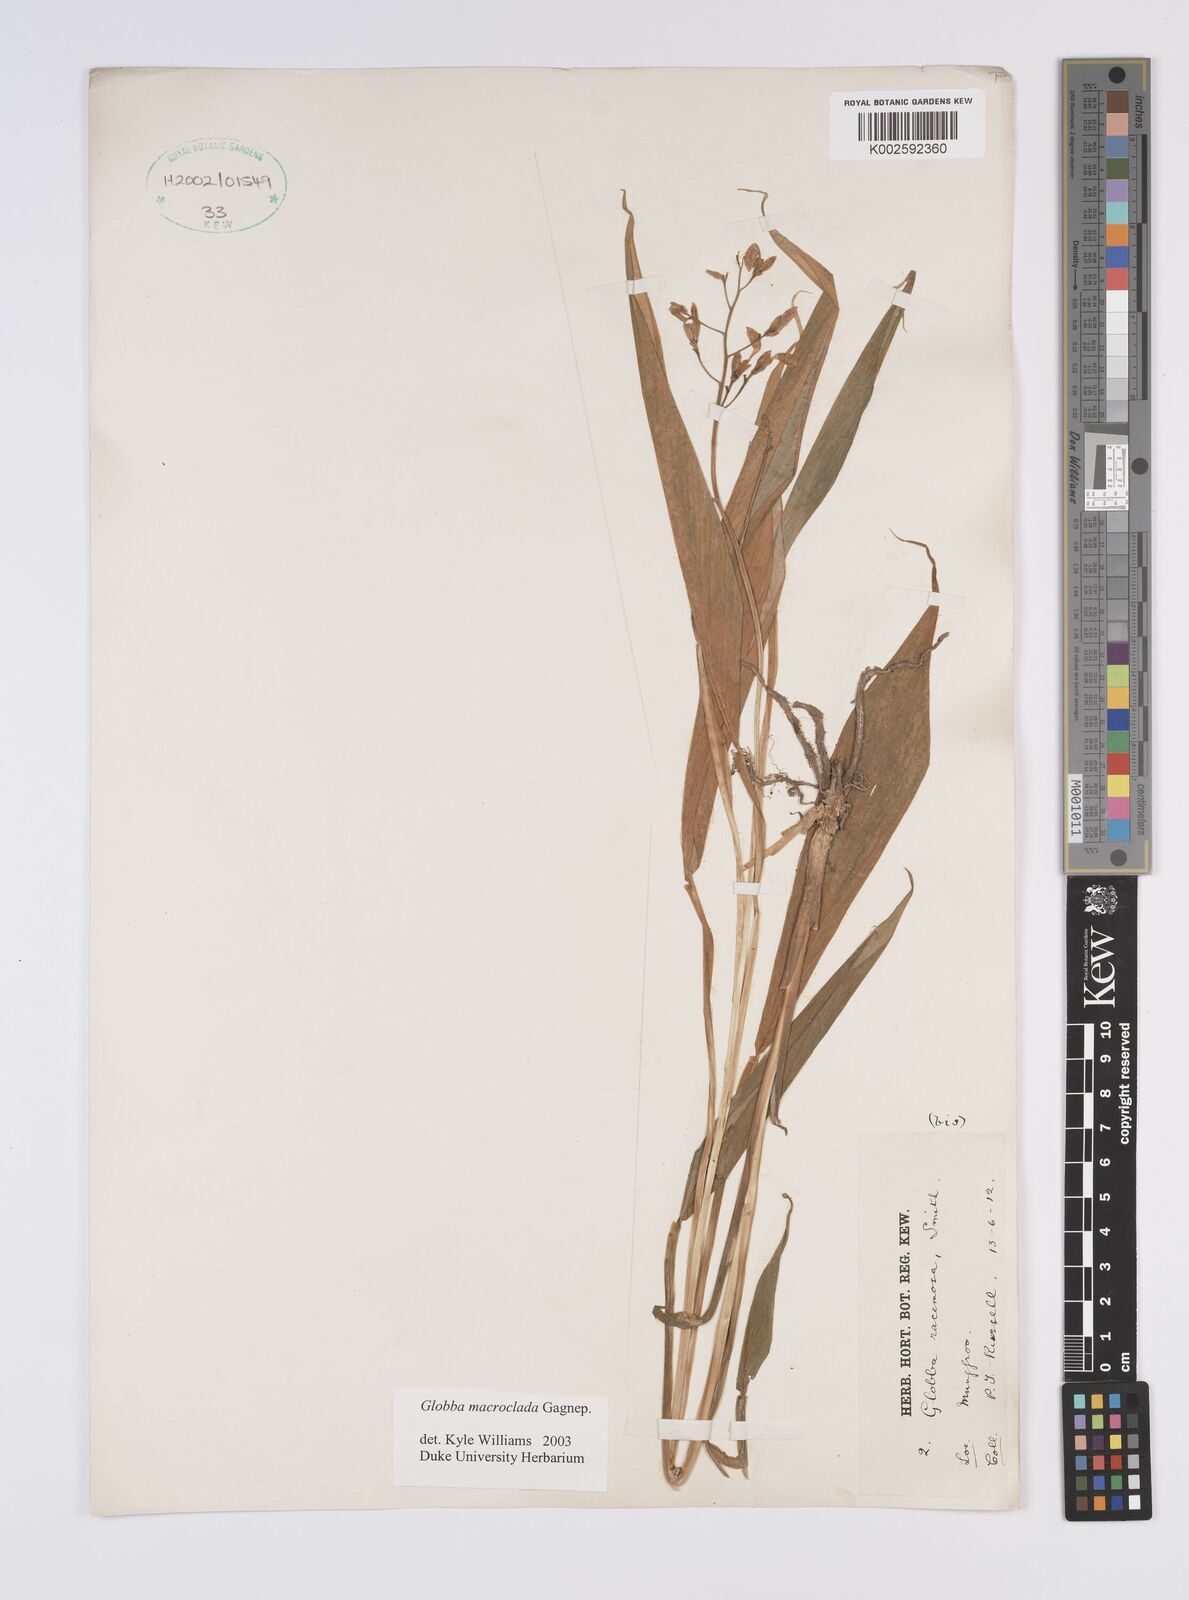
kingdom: Plantae
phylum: Tracheophyta
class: Liliopsida
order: Zingiberales
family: Zingiberaceae
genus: Globba
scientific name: Globba macroclada
